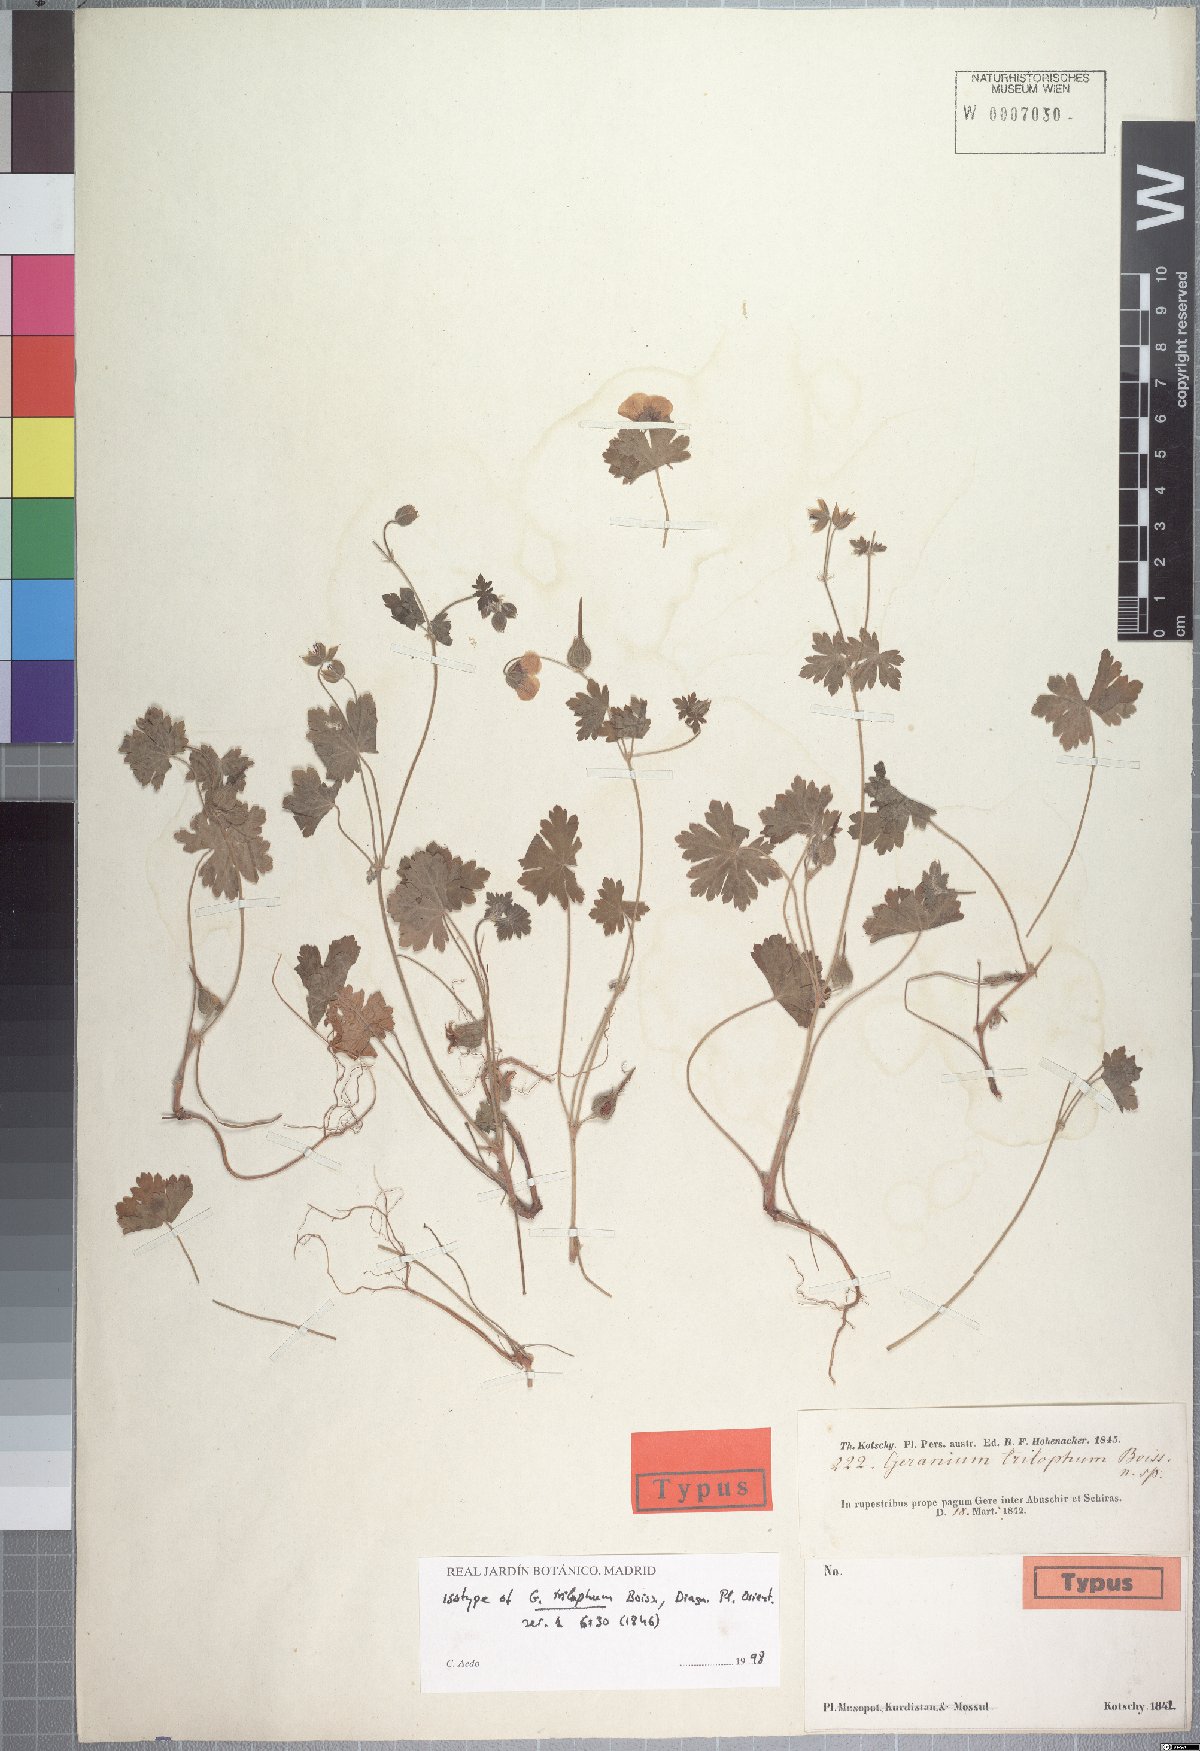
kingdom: Plantae
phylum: Tracheophyta
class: Magnoliopsida
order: Geraniales
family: Geraniaceae
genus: Geranium
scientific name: Geranium trilophum
